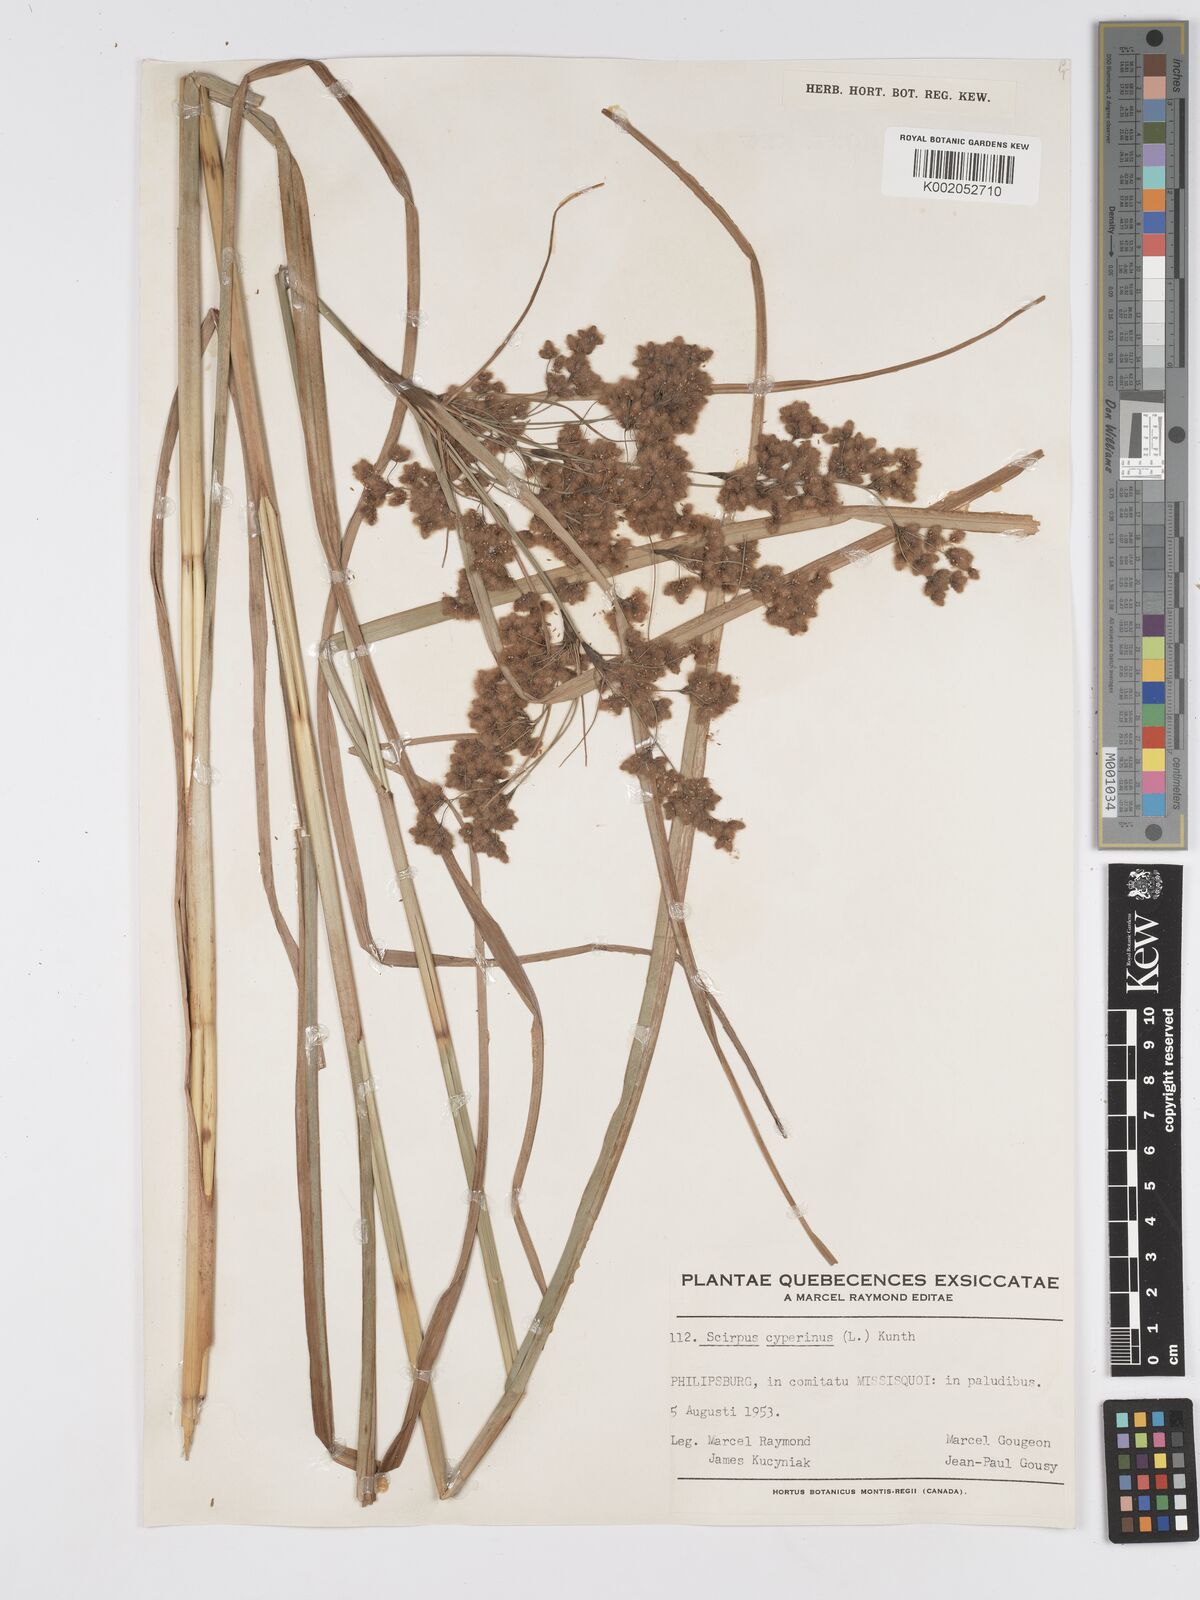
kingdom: Plantae
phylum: Tracheophyta
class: Liliopsida
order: Poales
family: Cyperaceae
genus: Scirpus
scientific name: Scirpus cyperinus
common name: Black-sheathed bulrush
